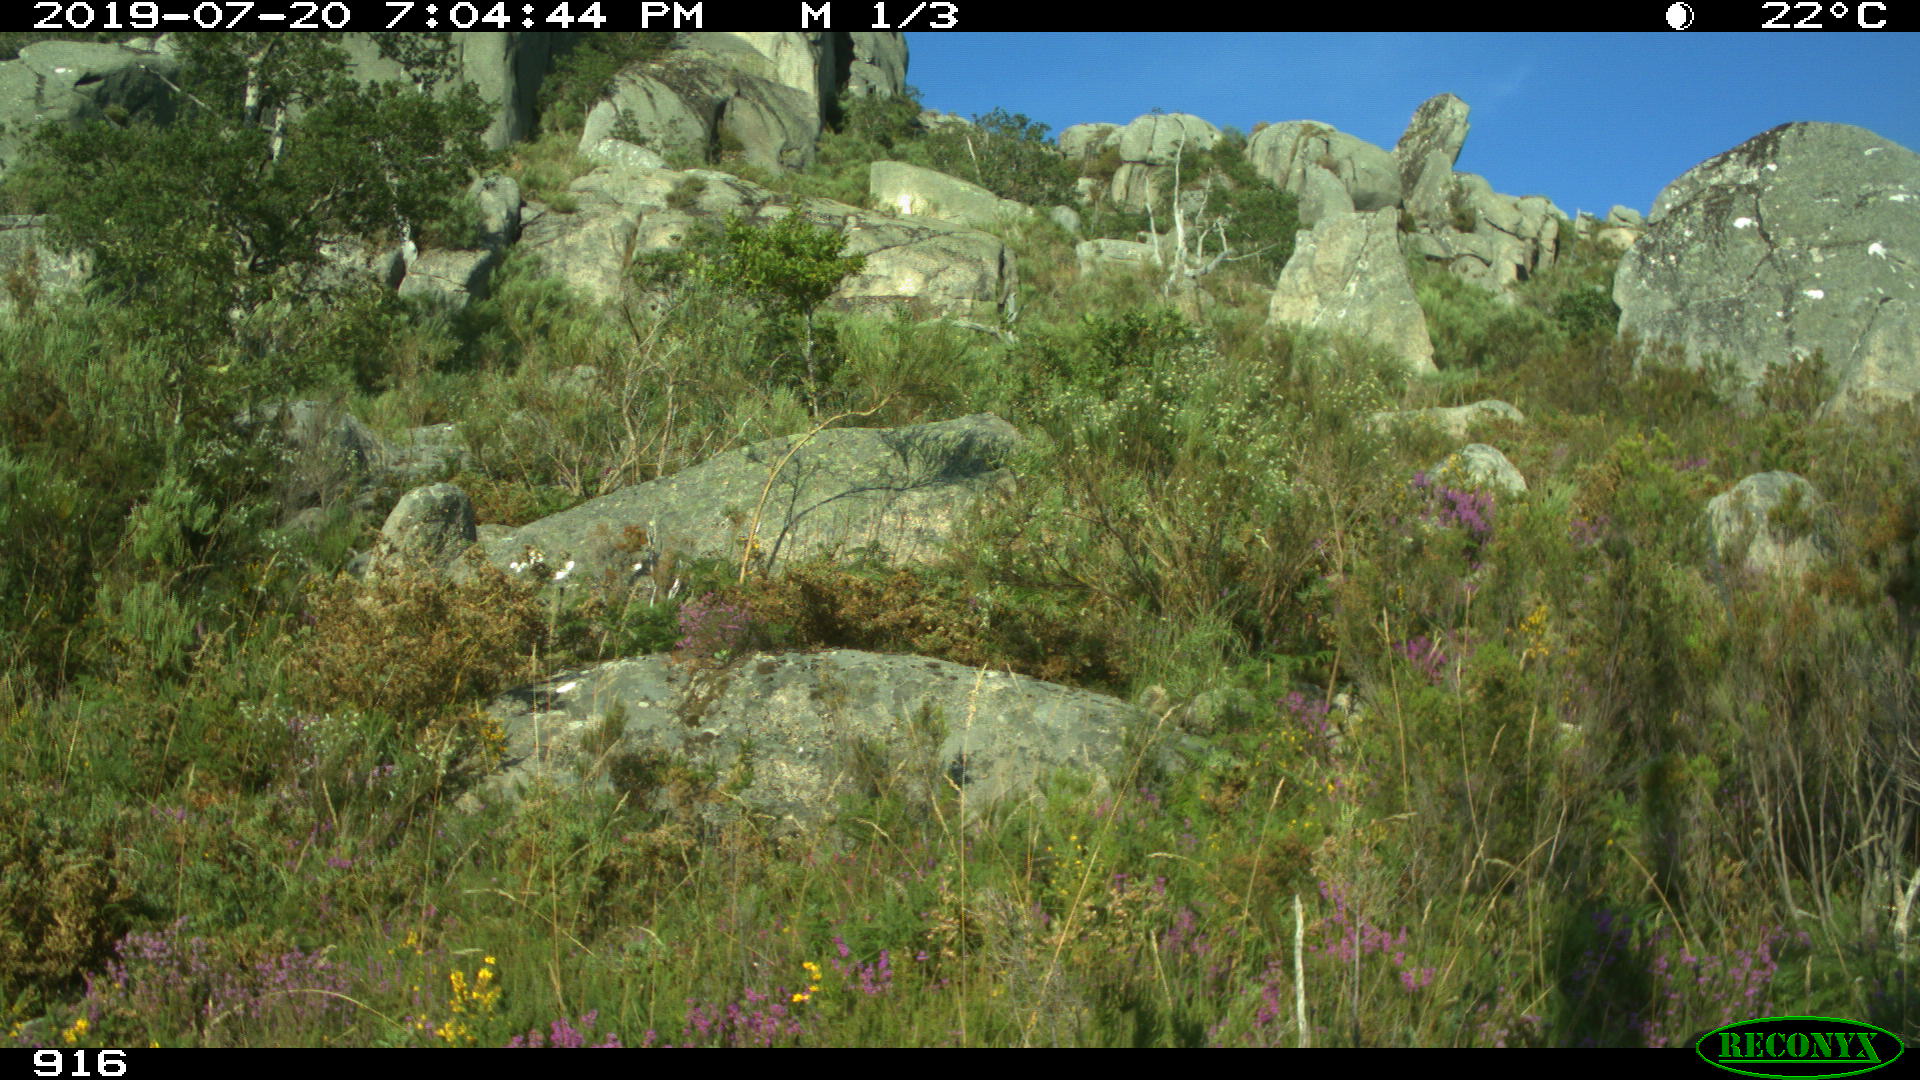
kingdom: Animalia
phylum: Chordata
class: Mammalia
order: Artiodactyla
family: Cervidae
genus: Capreolus
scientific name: Capreolus capreolus
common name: Western roe deer
